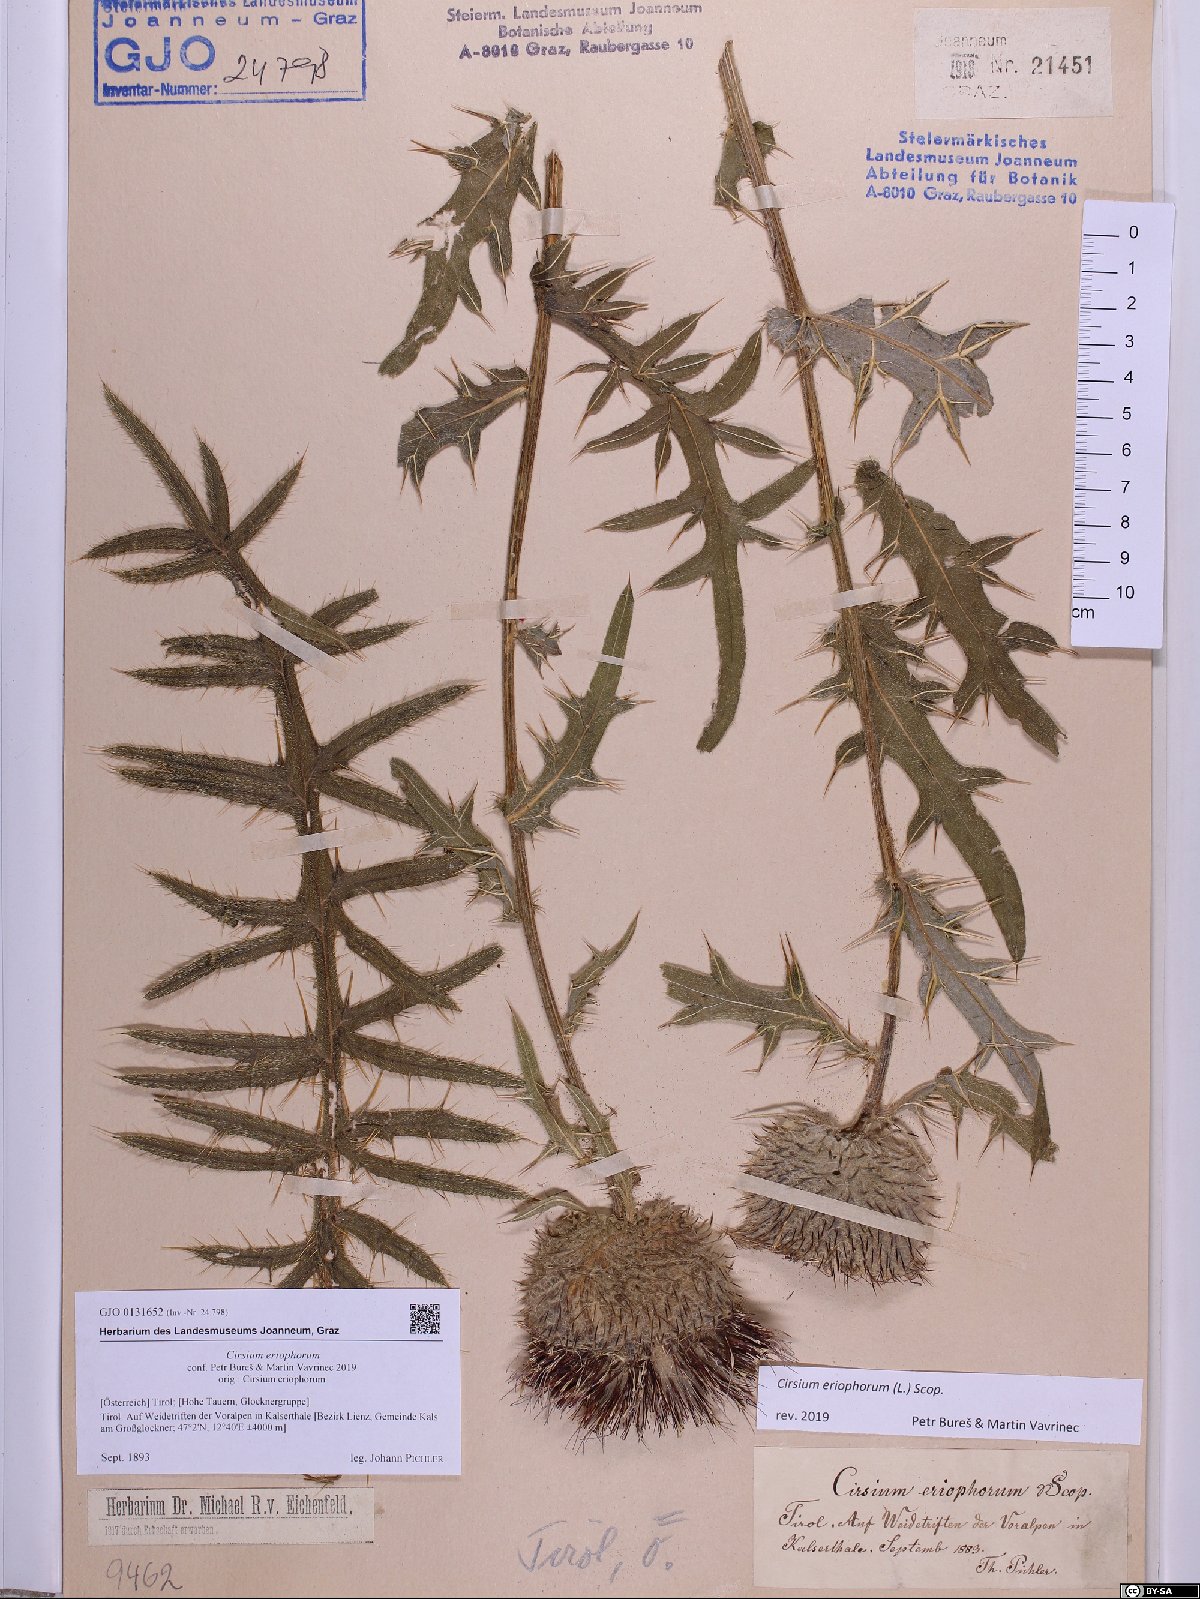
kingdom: Plantae
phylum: Tracheophyta
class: Magnoliopsida
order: Asterales
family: Asteraceae
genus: Lophiolepis
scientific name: Lophiolepis eriophora
